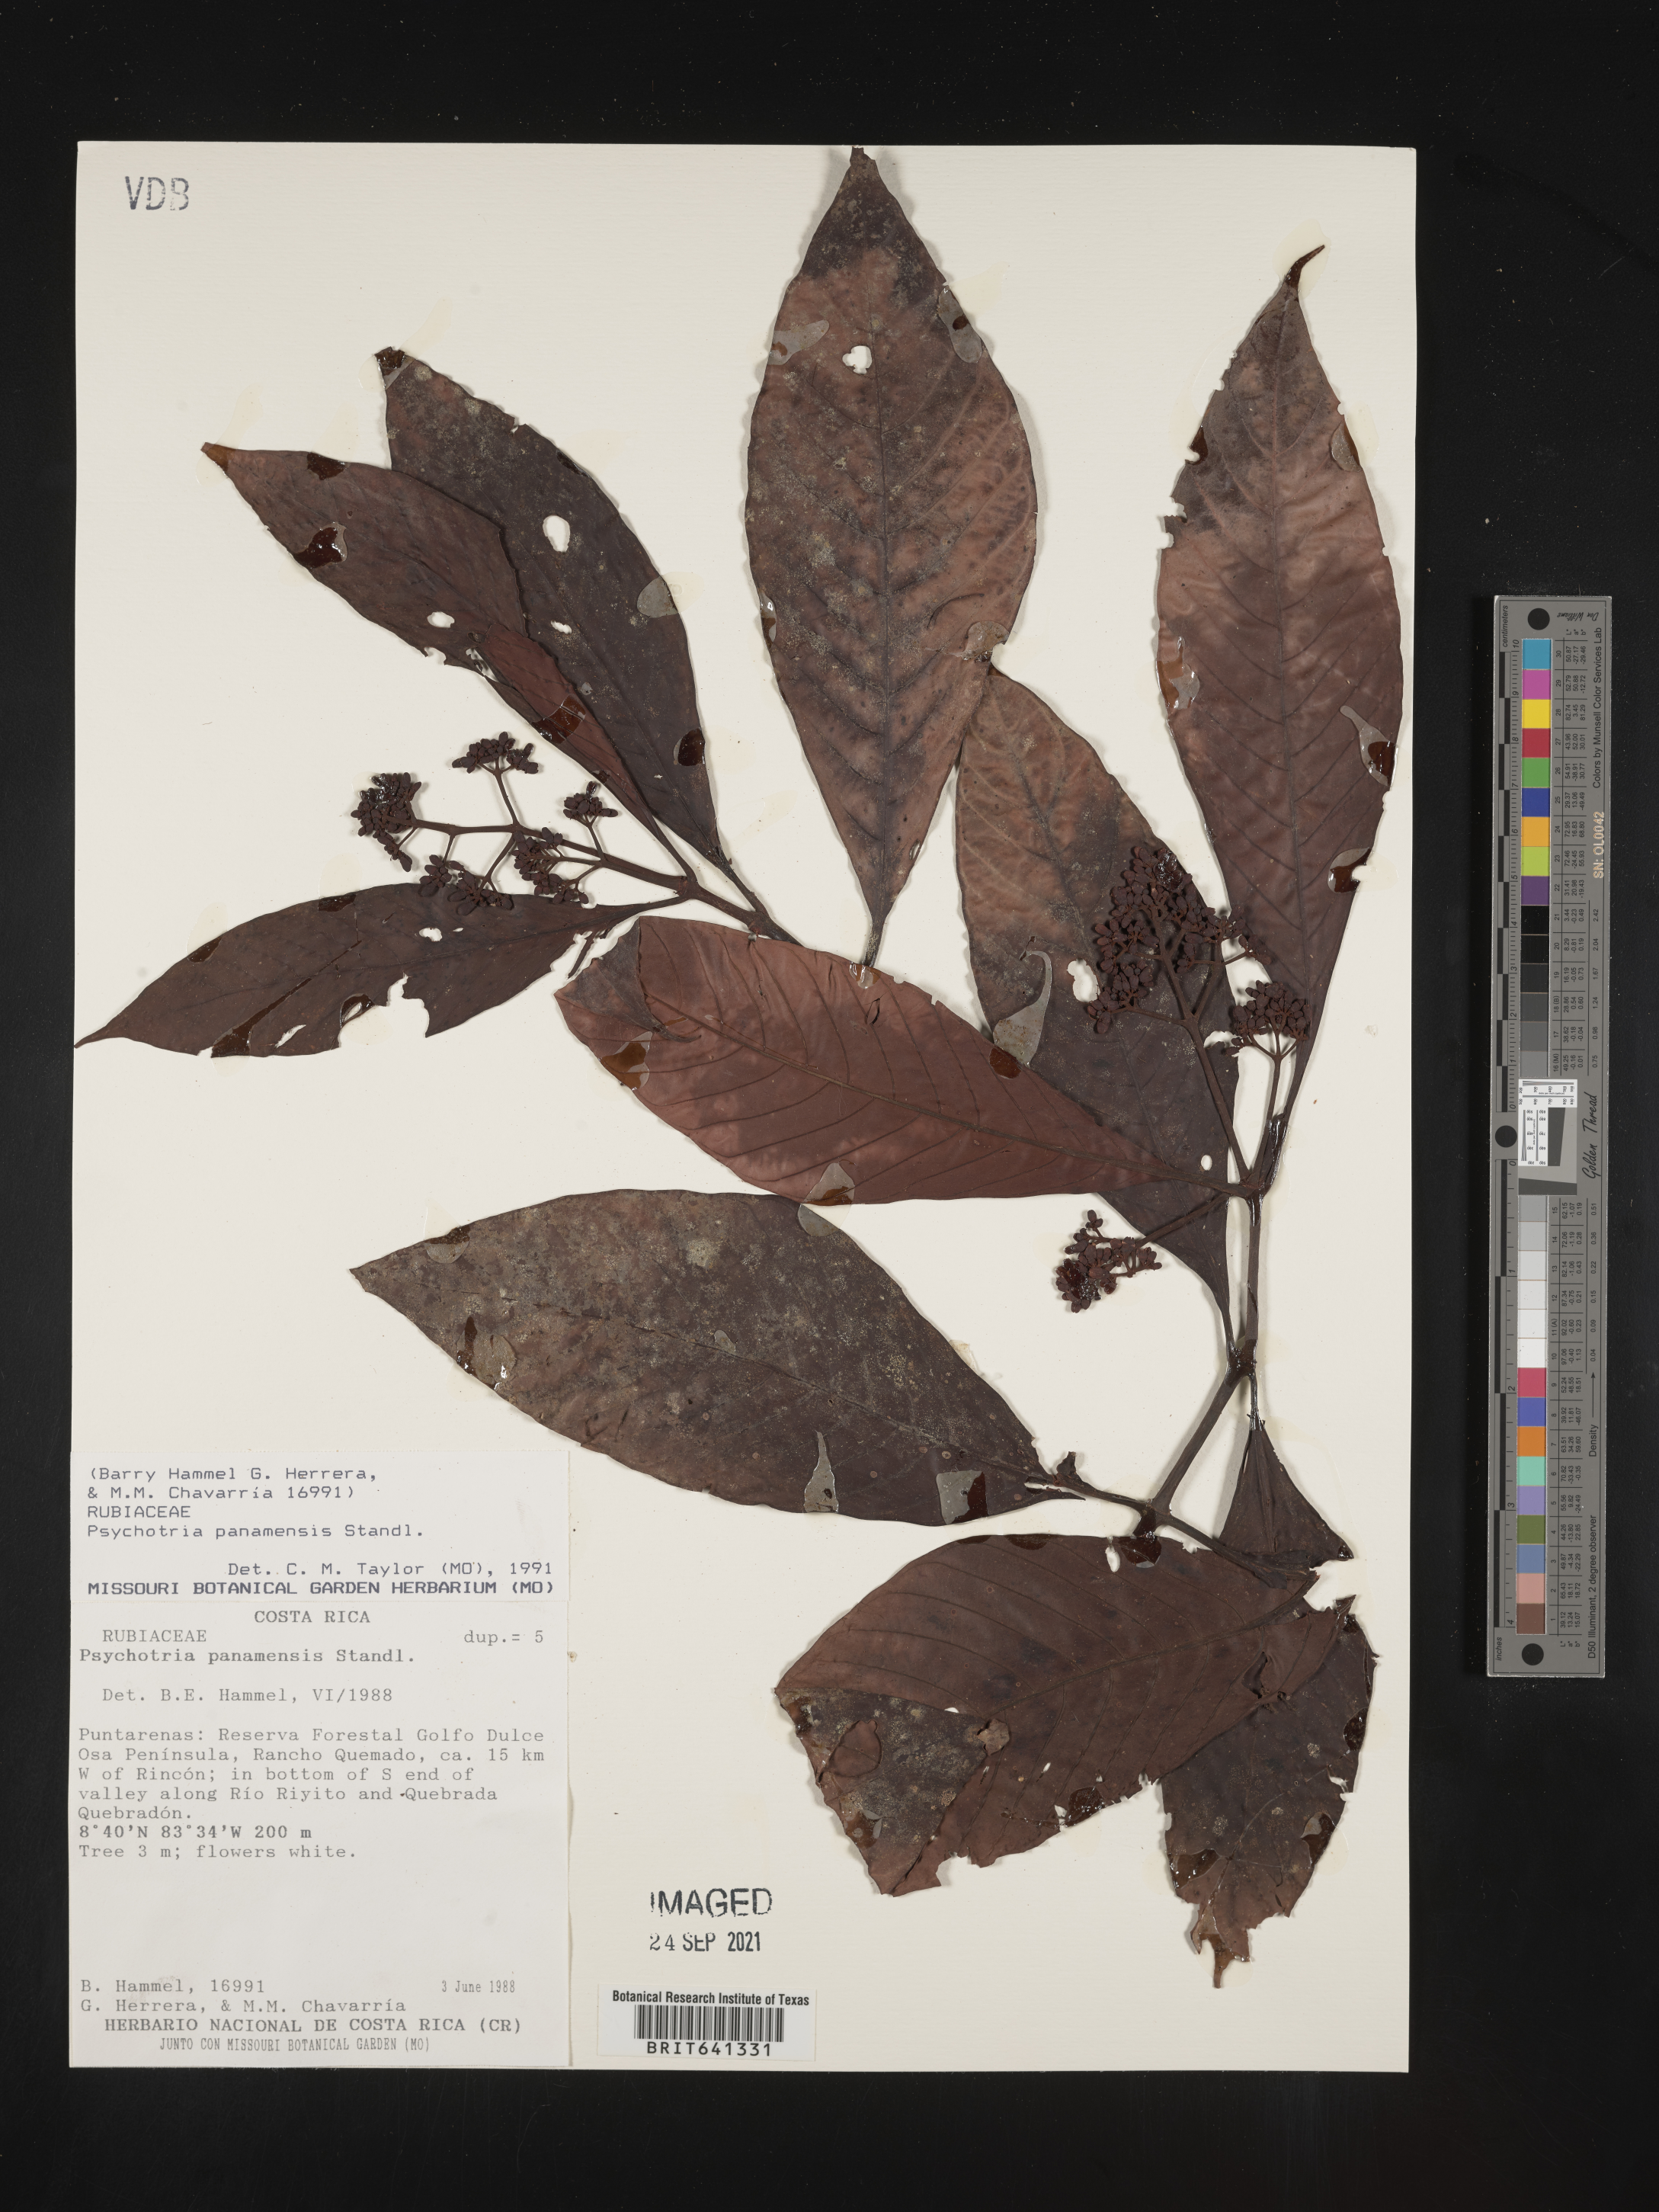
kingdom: Plantae
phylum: Tracheophyta
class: Magnoliopsida
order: Gentianales
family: Rubiaceae
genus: Psychotria
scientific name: Psychotria
